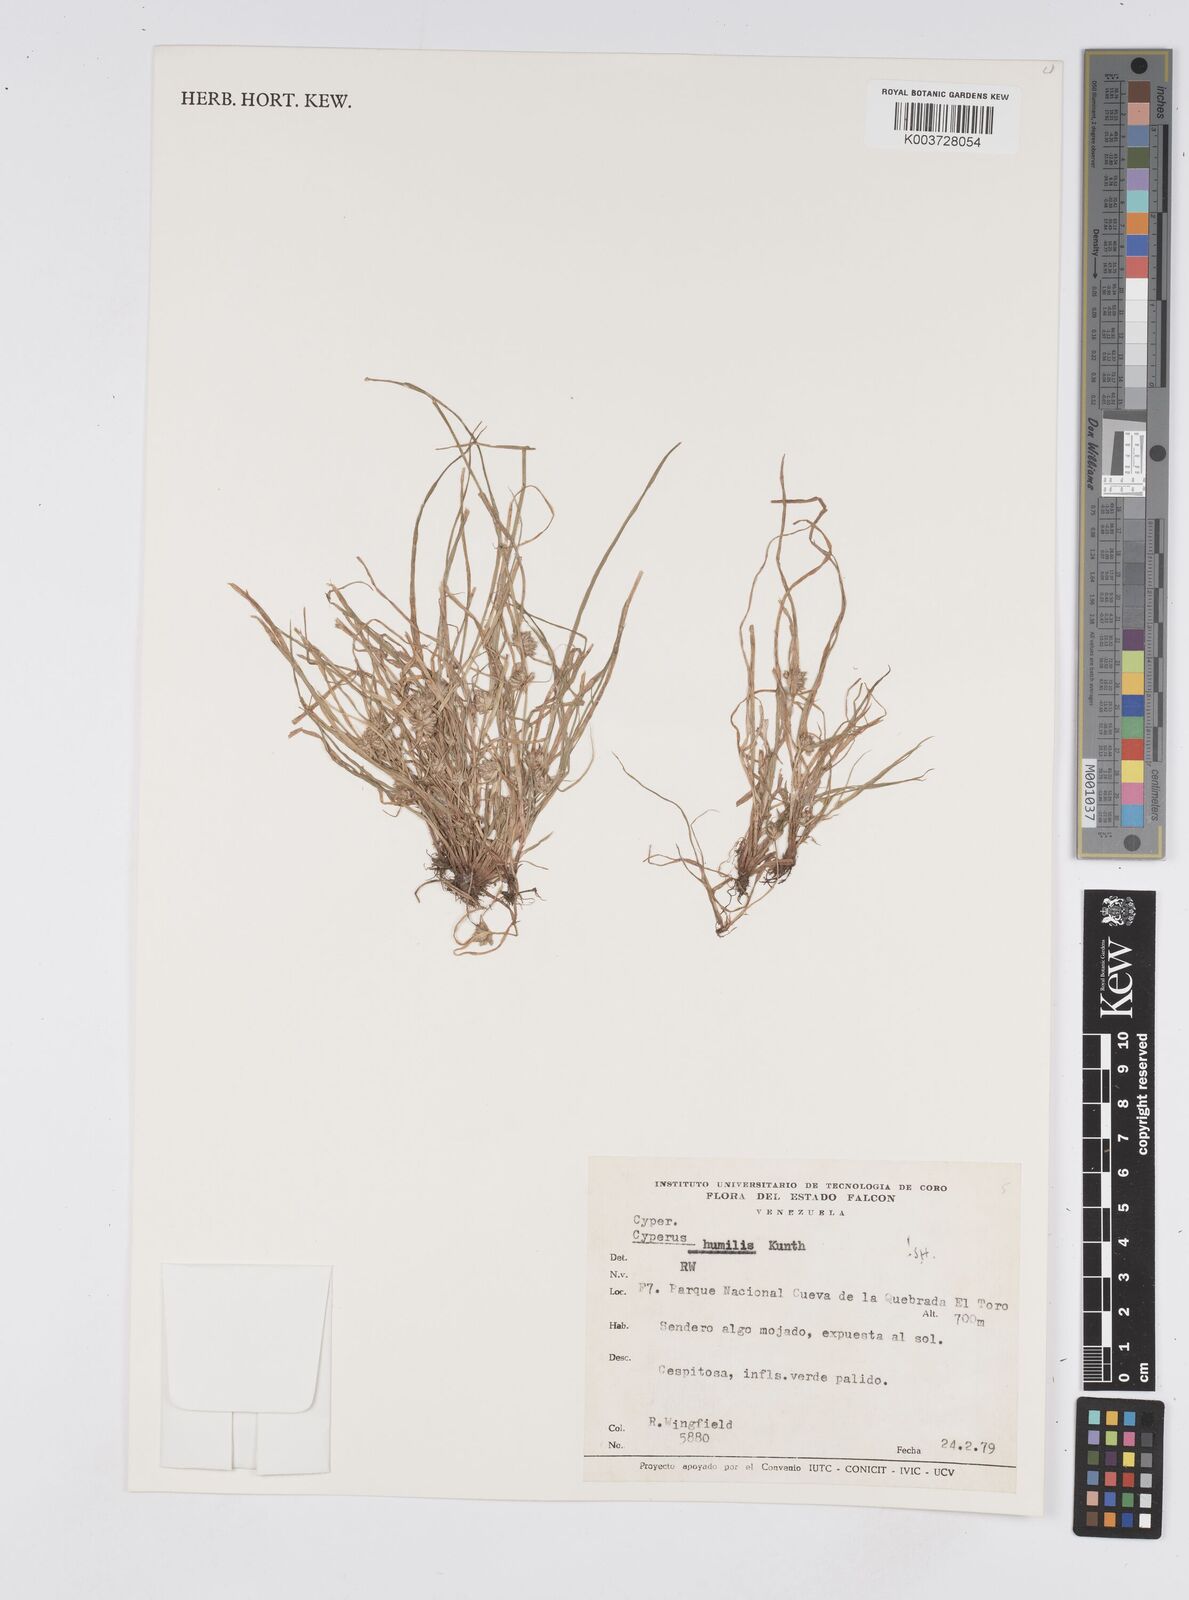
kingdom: Plantae
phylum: Tracheophyta
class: Liliopsida
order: Poales
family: Cyperaceae
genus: Cyperus
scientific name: Cyperus humilis
